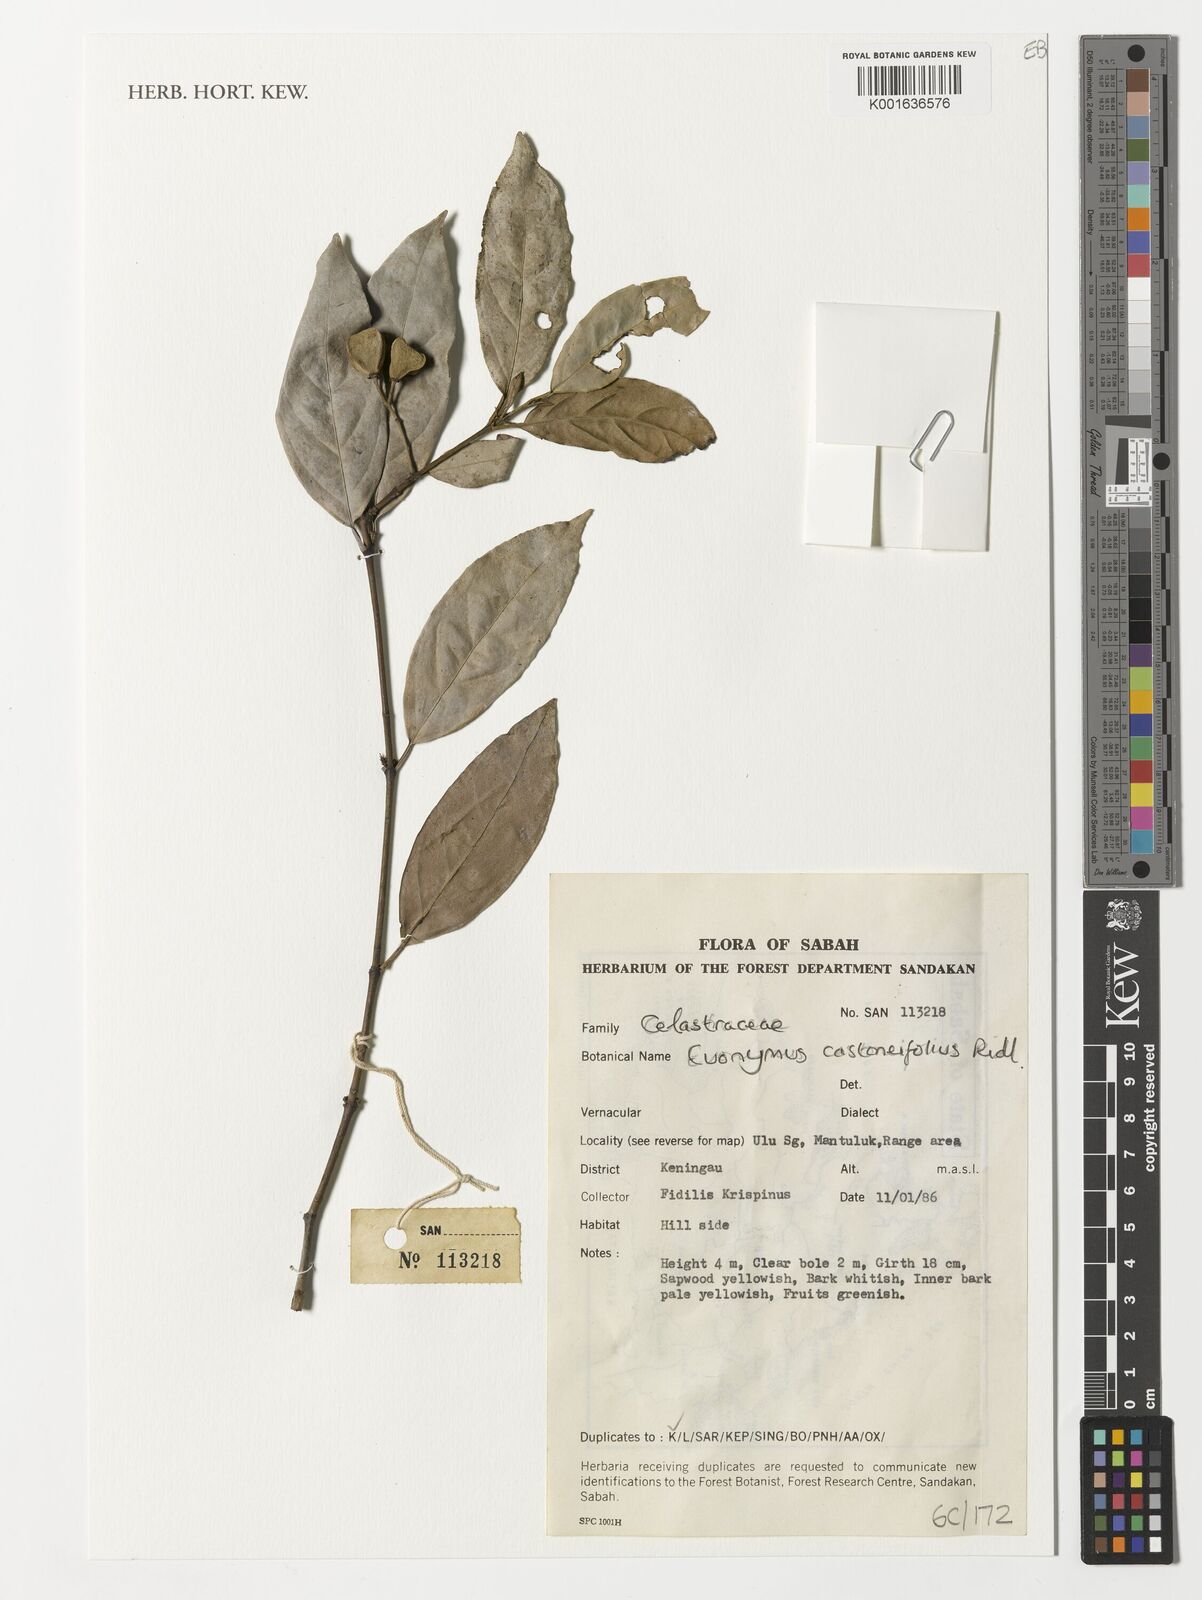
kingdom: Plantae
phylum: Tracheophyta
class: Magnoliopsida
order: Celastrales
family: Celastraceae
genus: Euonymus
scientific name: Euonymus castaneifolius
